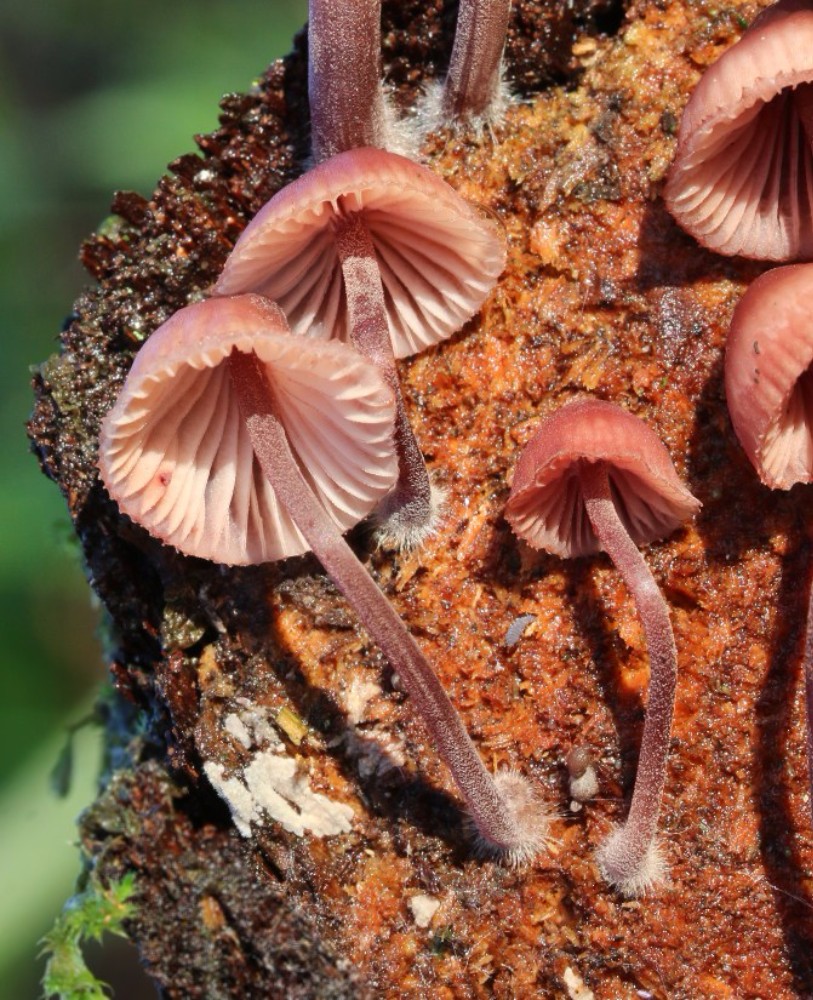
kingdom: Fungi
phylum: Basidiomycota
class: Agaricomycetes
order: Agaricales
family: Mycenaceae
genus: Mycena
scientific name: Mycena haematopus
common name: blødende huesvamp
